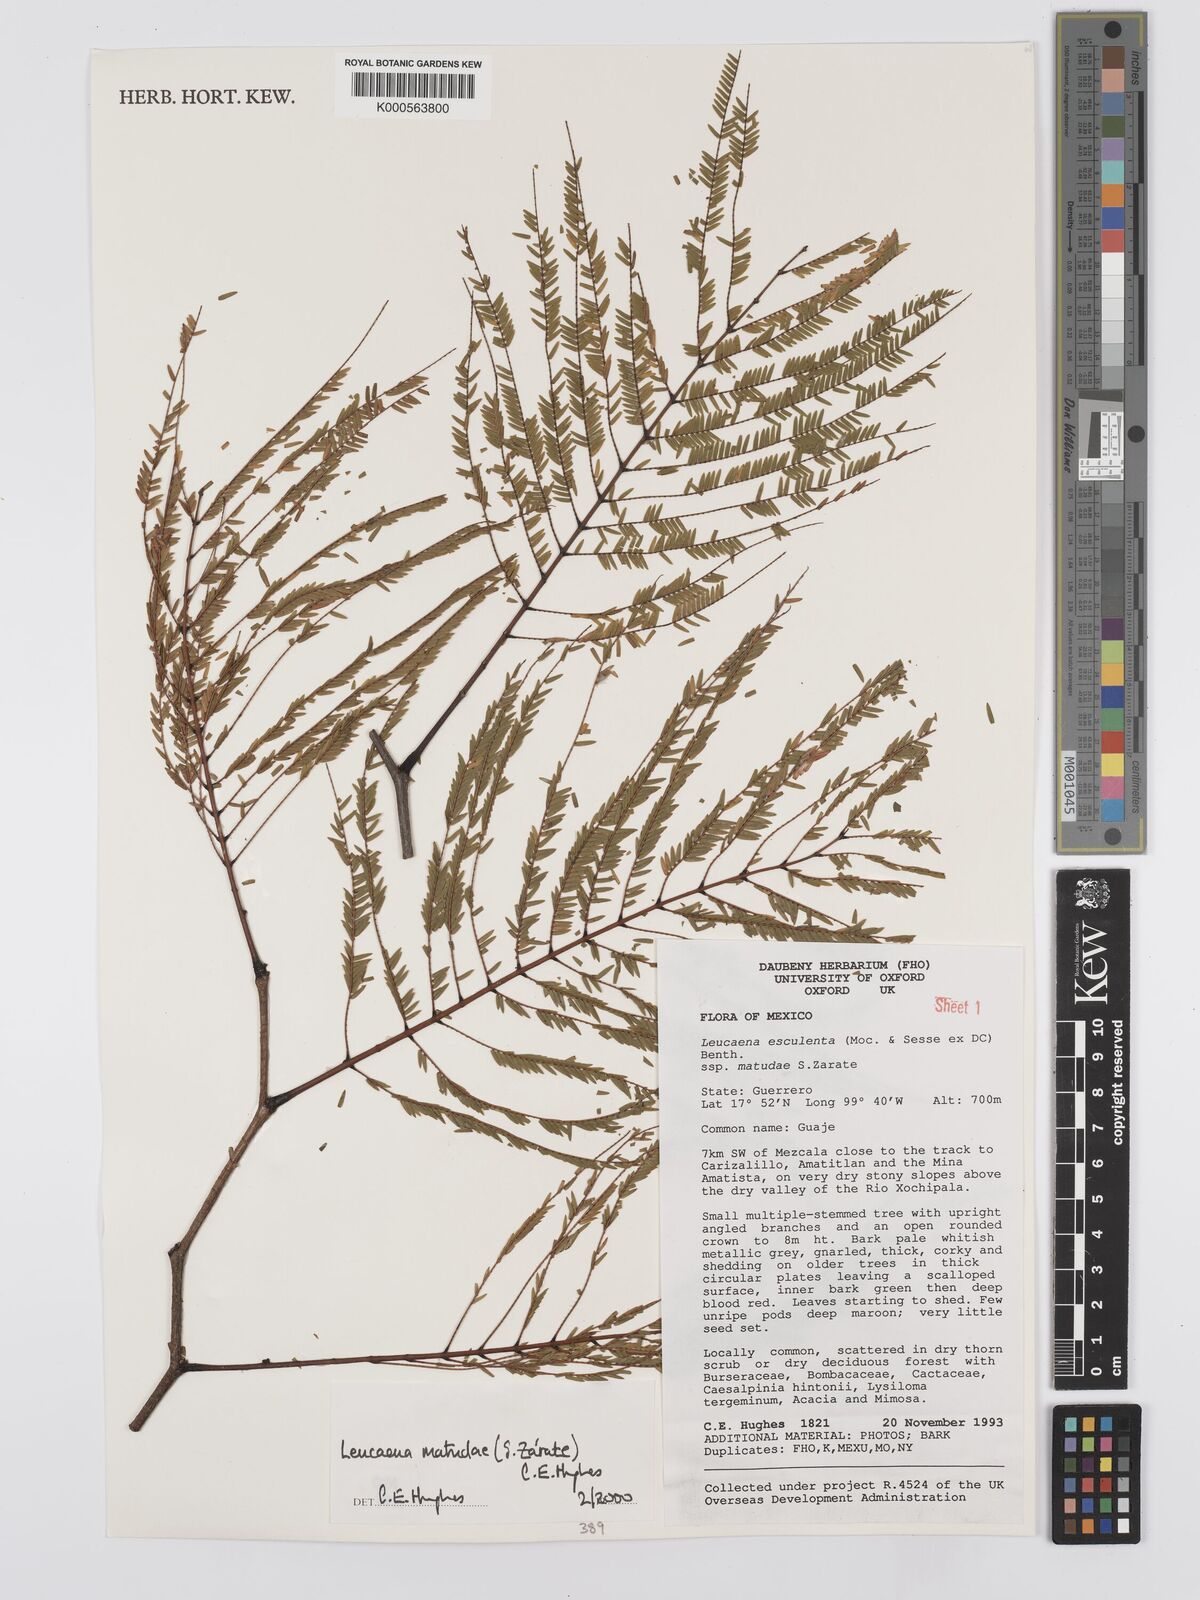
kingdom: Plantae
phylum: Tracheophyta
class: Magnoliopsida
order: Fabales
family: Fabaceae
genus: Leucaena
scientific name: Leucaena
